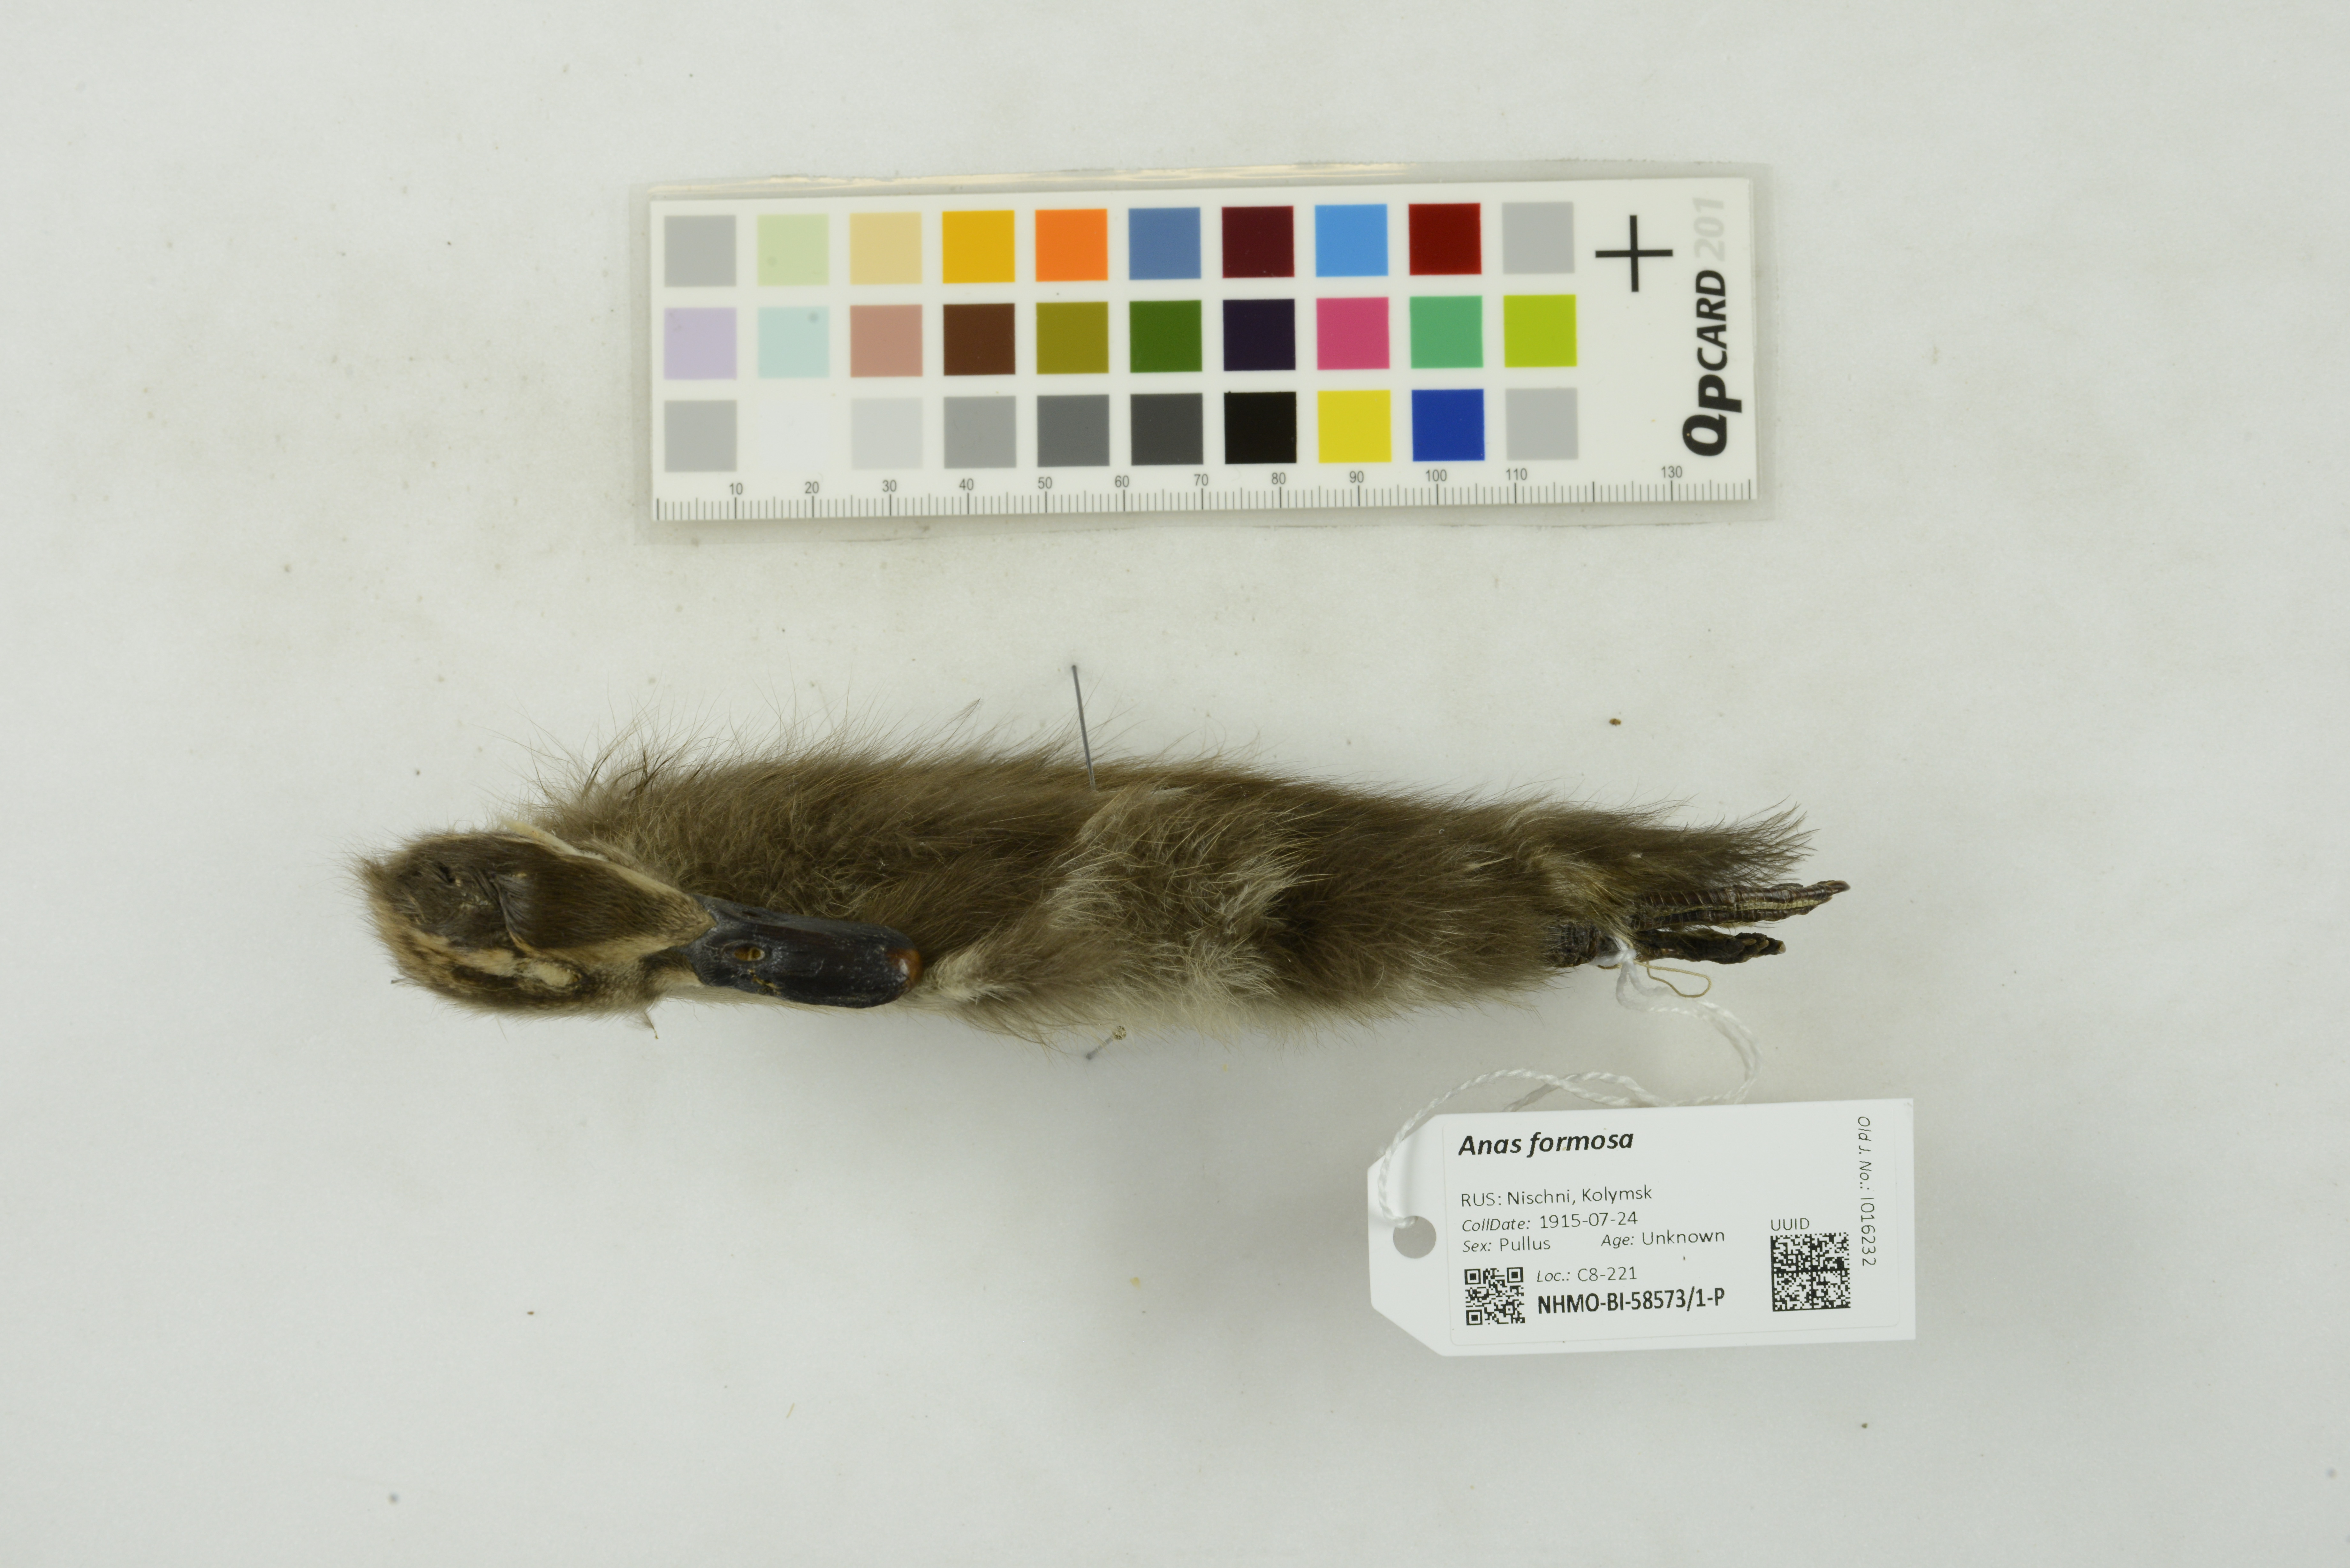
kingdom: Animalia
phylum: Chordata
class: Aves
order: Anseriformes
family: Anatidae
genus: Sibirionetta
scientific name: Sibirionetta formosa
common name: Baikal teal
